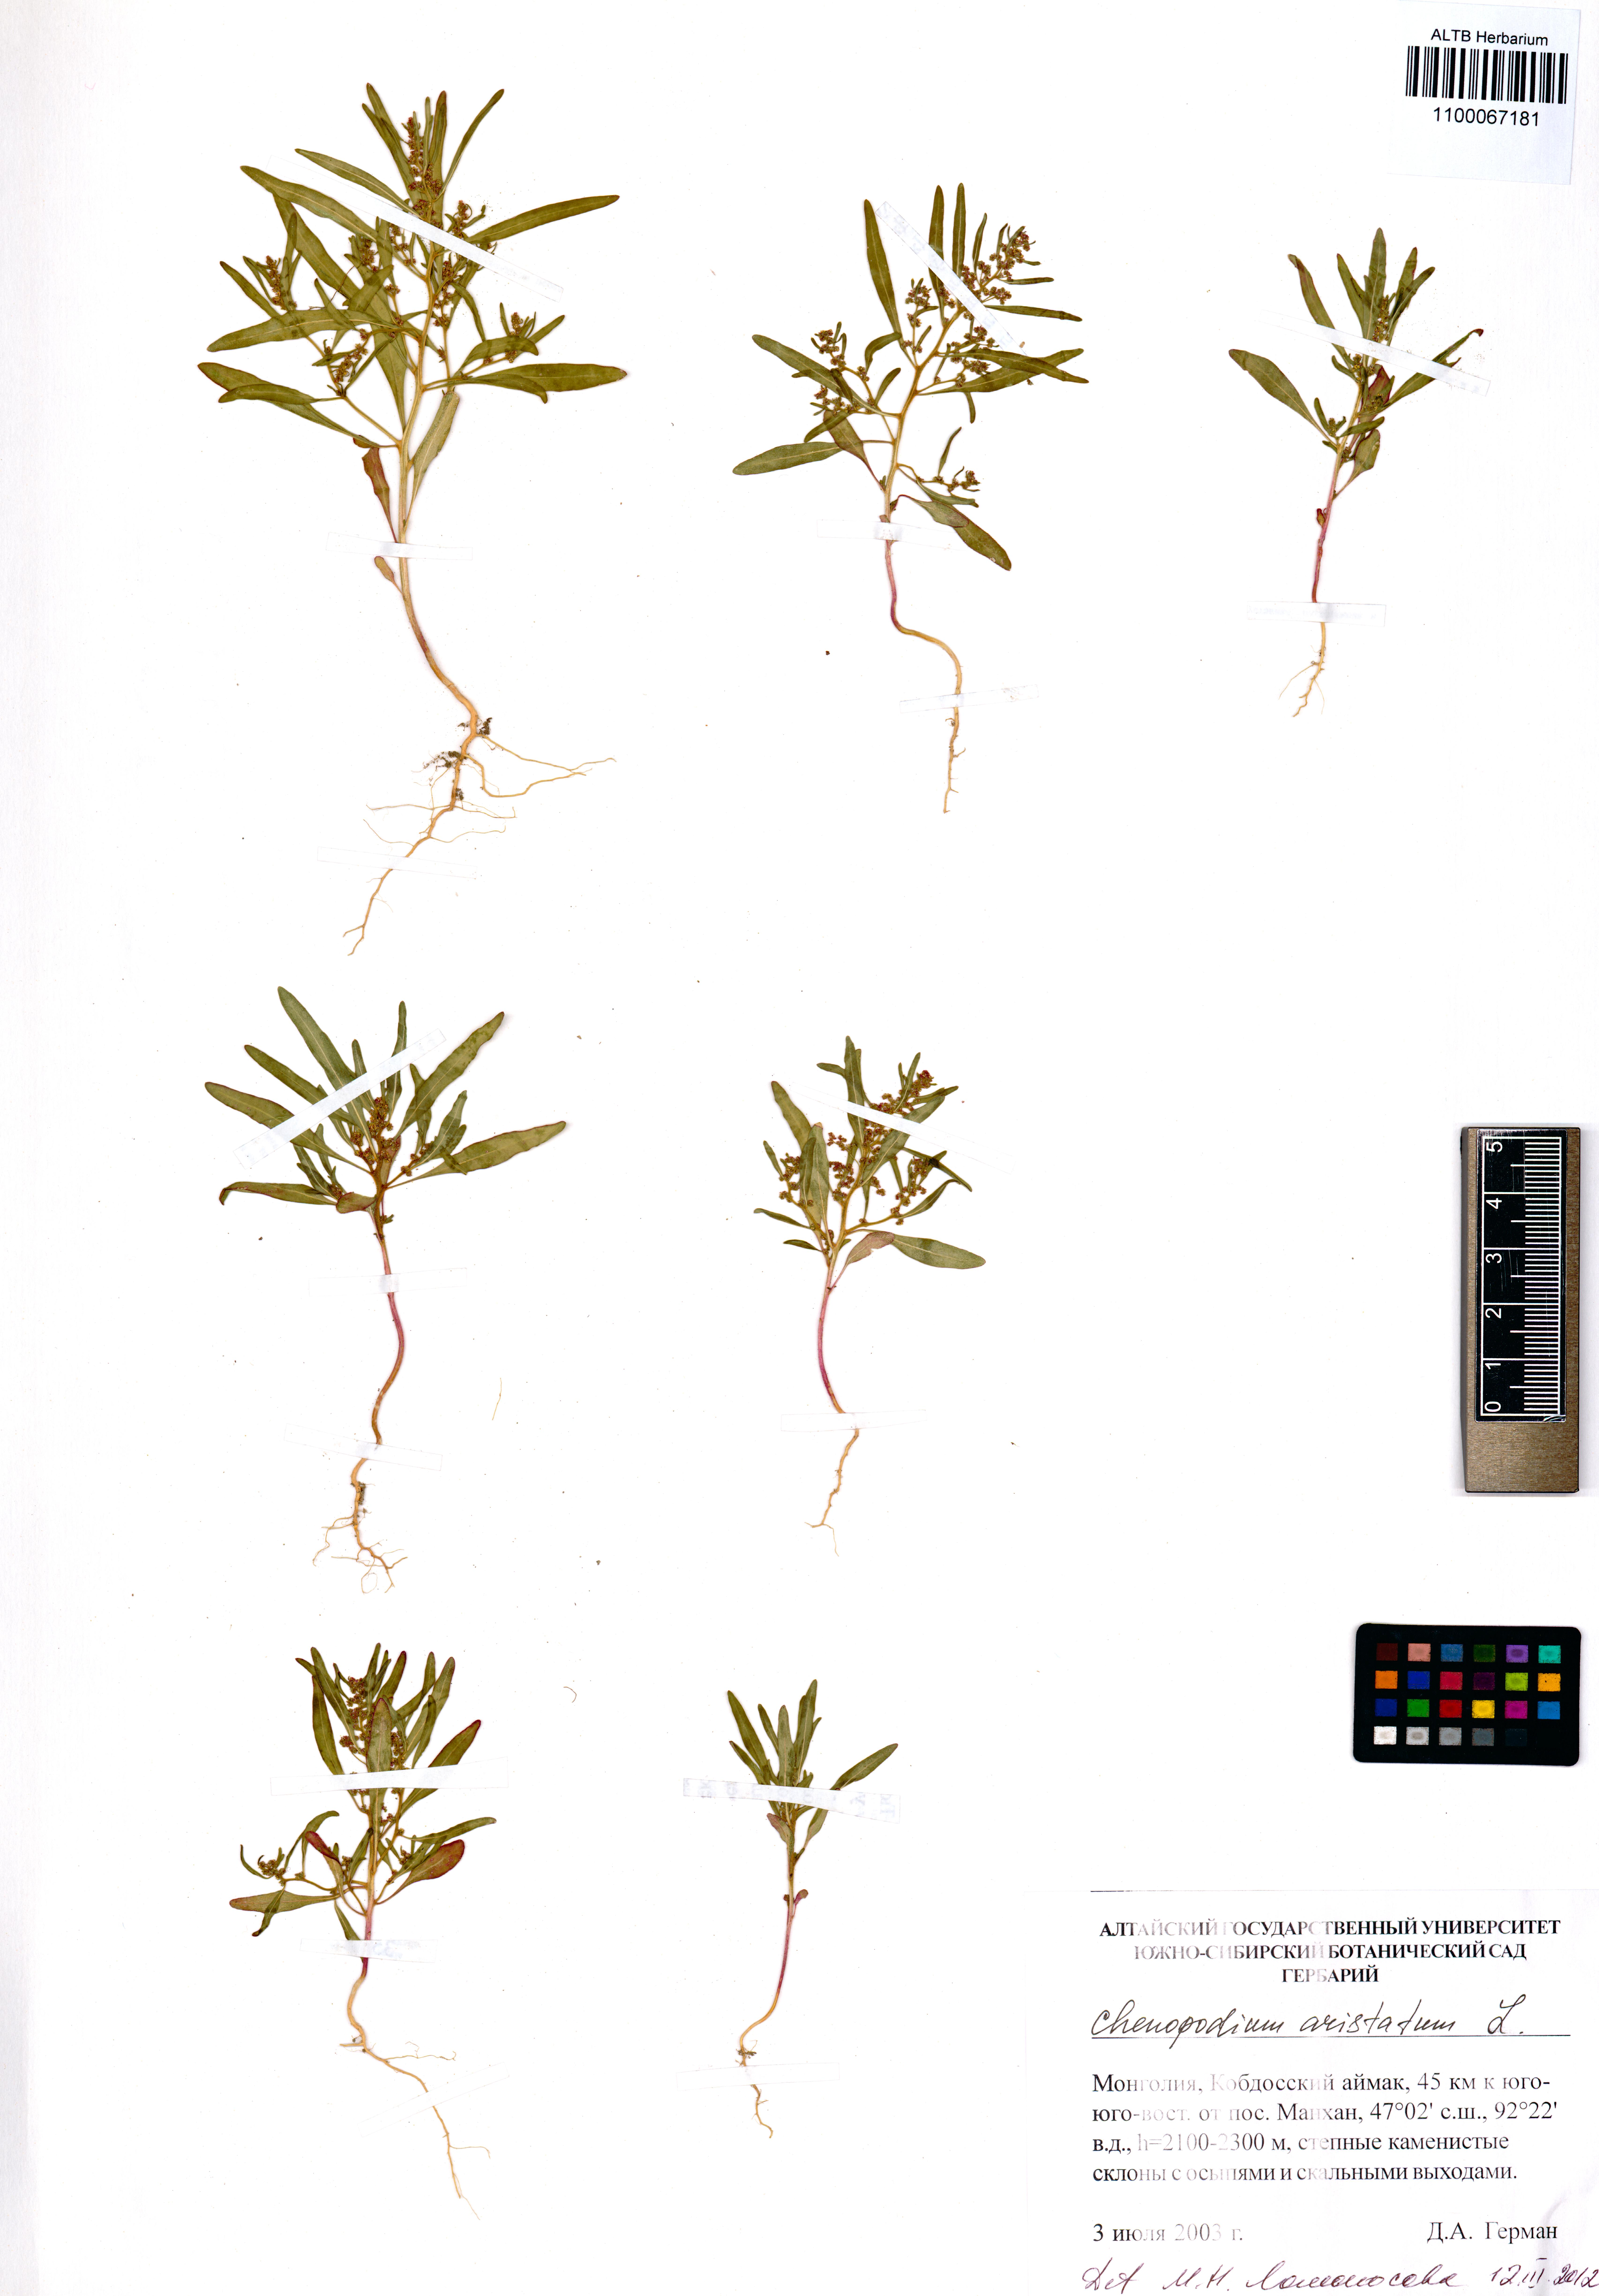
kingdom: Plantae
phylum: Tracheophyta
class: Magnoliopsida
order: Caryophyllales
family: Amaranthaceae
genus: Teloxys
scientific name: Teloxys aristata
